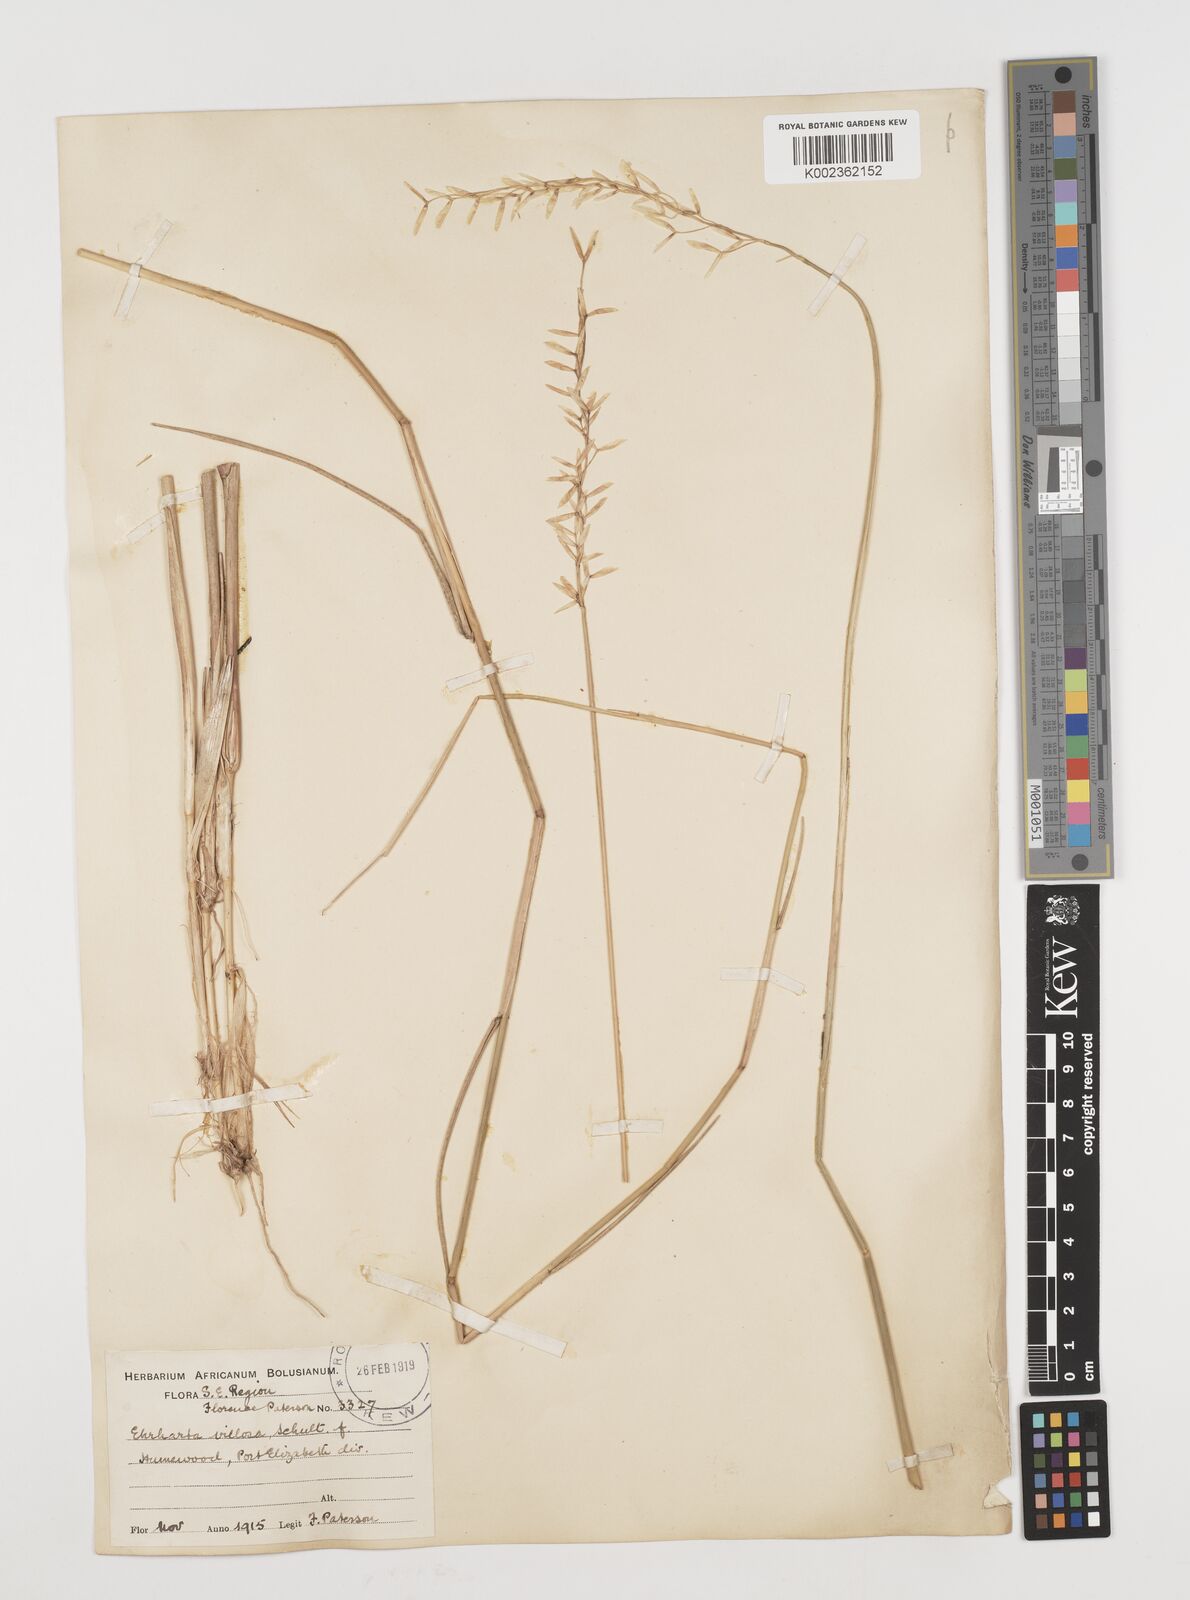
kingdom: Plantae
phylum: Tracheophyta
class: Liliopsida
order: Poales
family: Poaceae
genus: Ehrharta
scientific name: Ehrharta villosa
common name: Pyp grass
